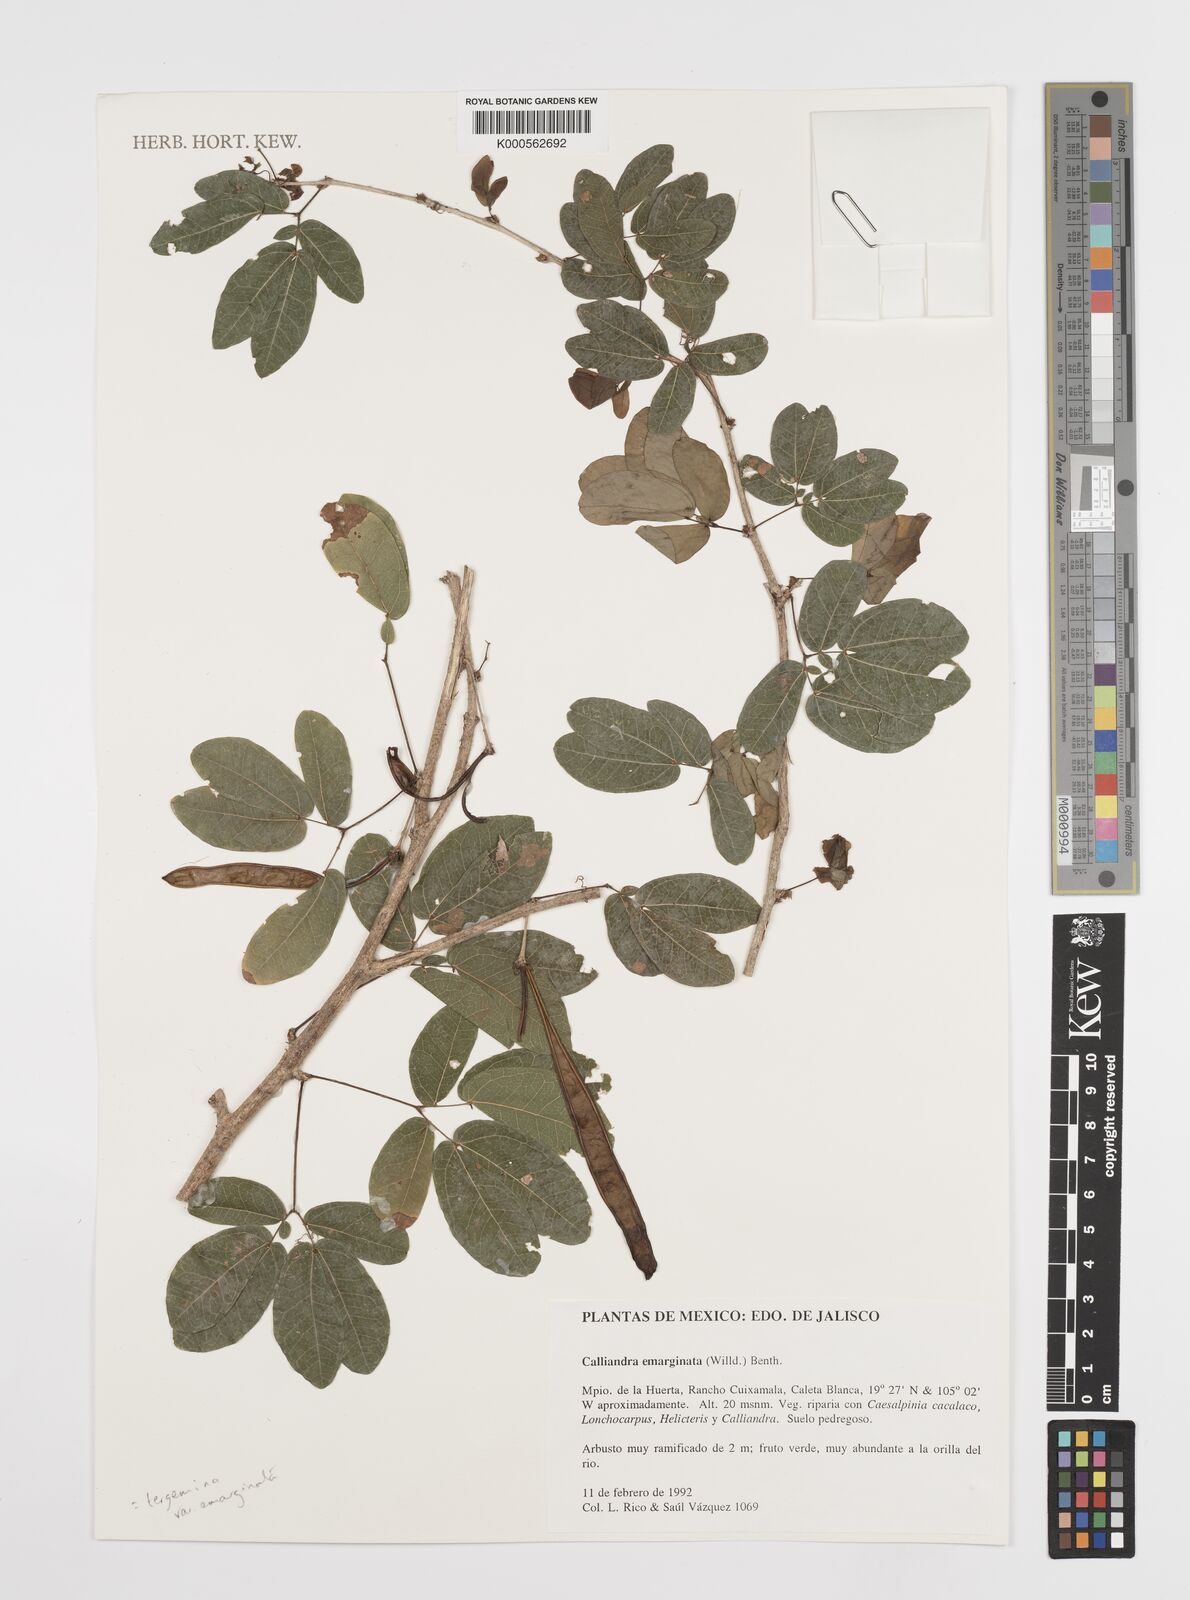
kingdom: Plantae
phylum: Tracheophyta
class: Magnoliopsida
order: Fabales
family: Fabaceae
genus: Calliandra
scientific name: Calliandra tergemina
